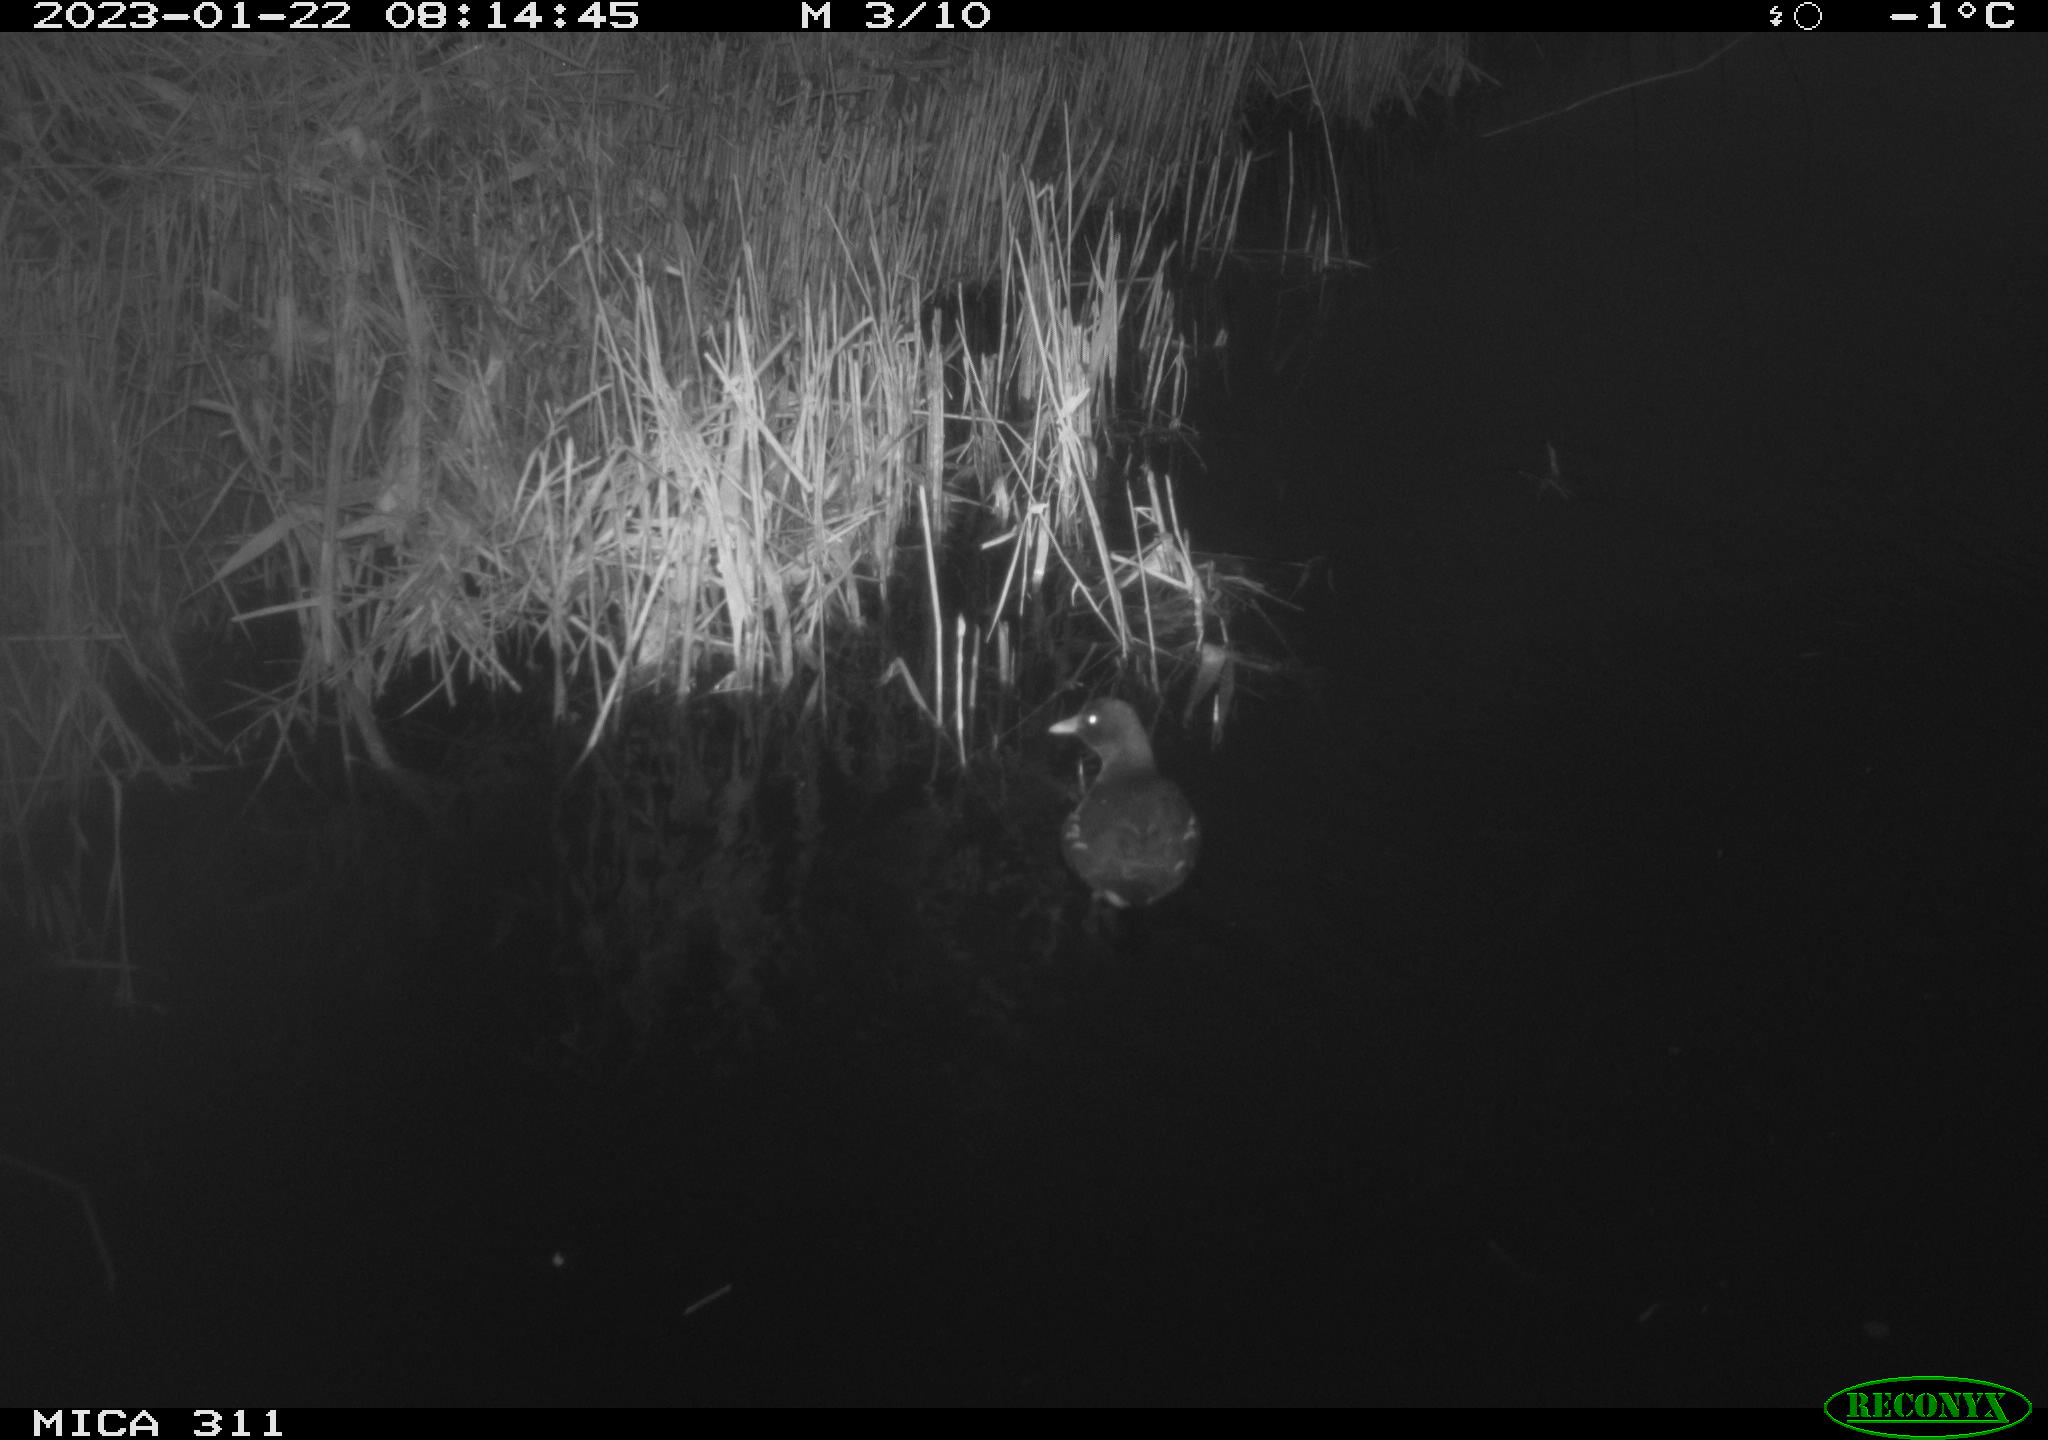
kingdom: Animalia
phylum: Chordata
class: Aves
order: Gruiformes
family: Rallidae
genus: Gallinula
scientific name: Gallinula chloropus
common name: Common moorhen
